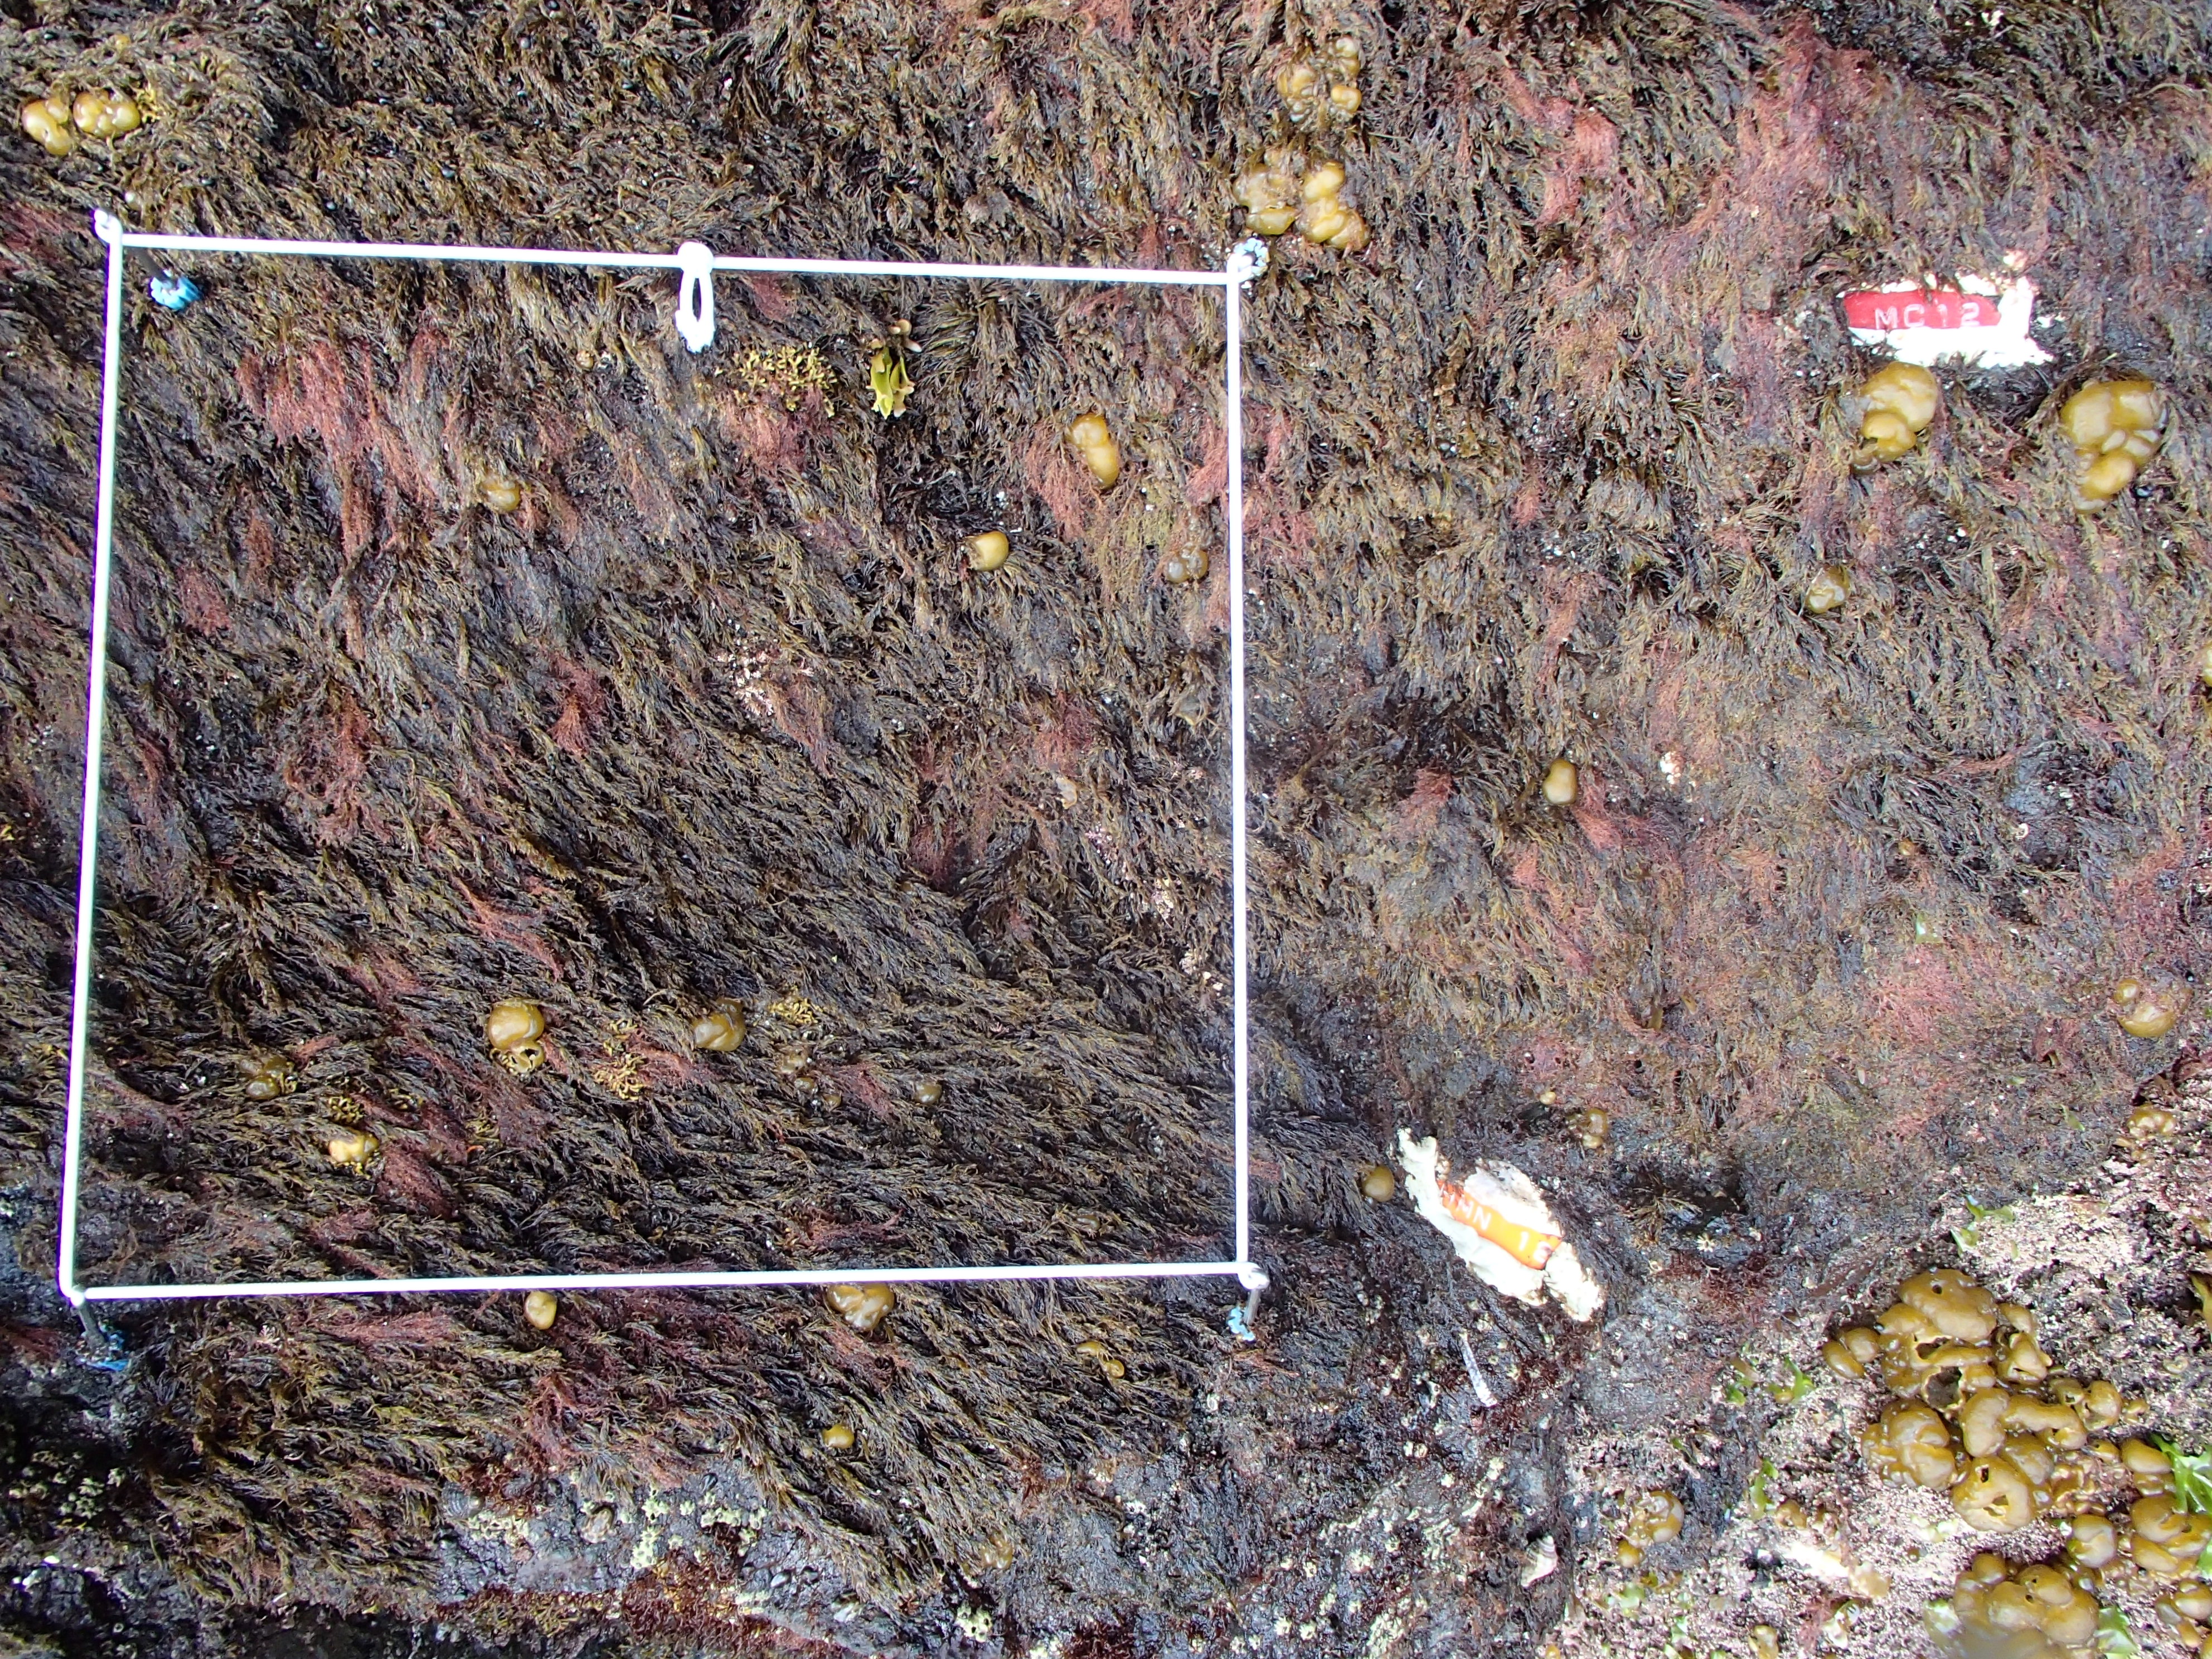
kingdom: Chromista
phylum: Ochrophyta
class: Phaeophyceae
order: Scytosiphonales
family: Scytosiphonaceae
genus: Analipus
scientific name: Analipus japonicus
